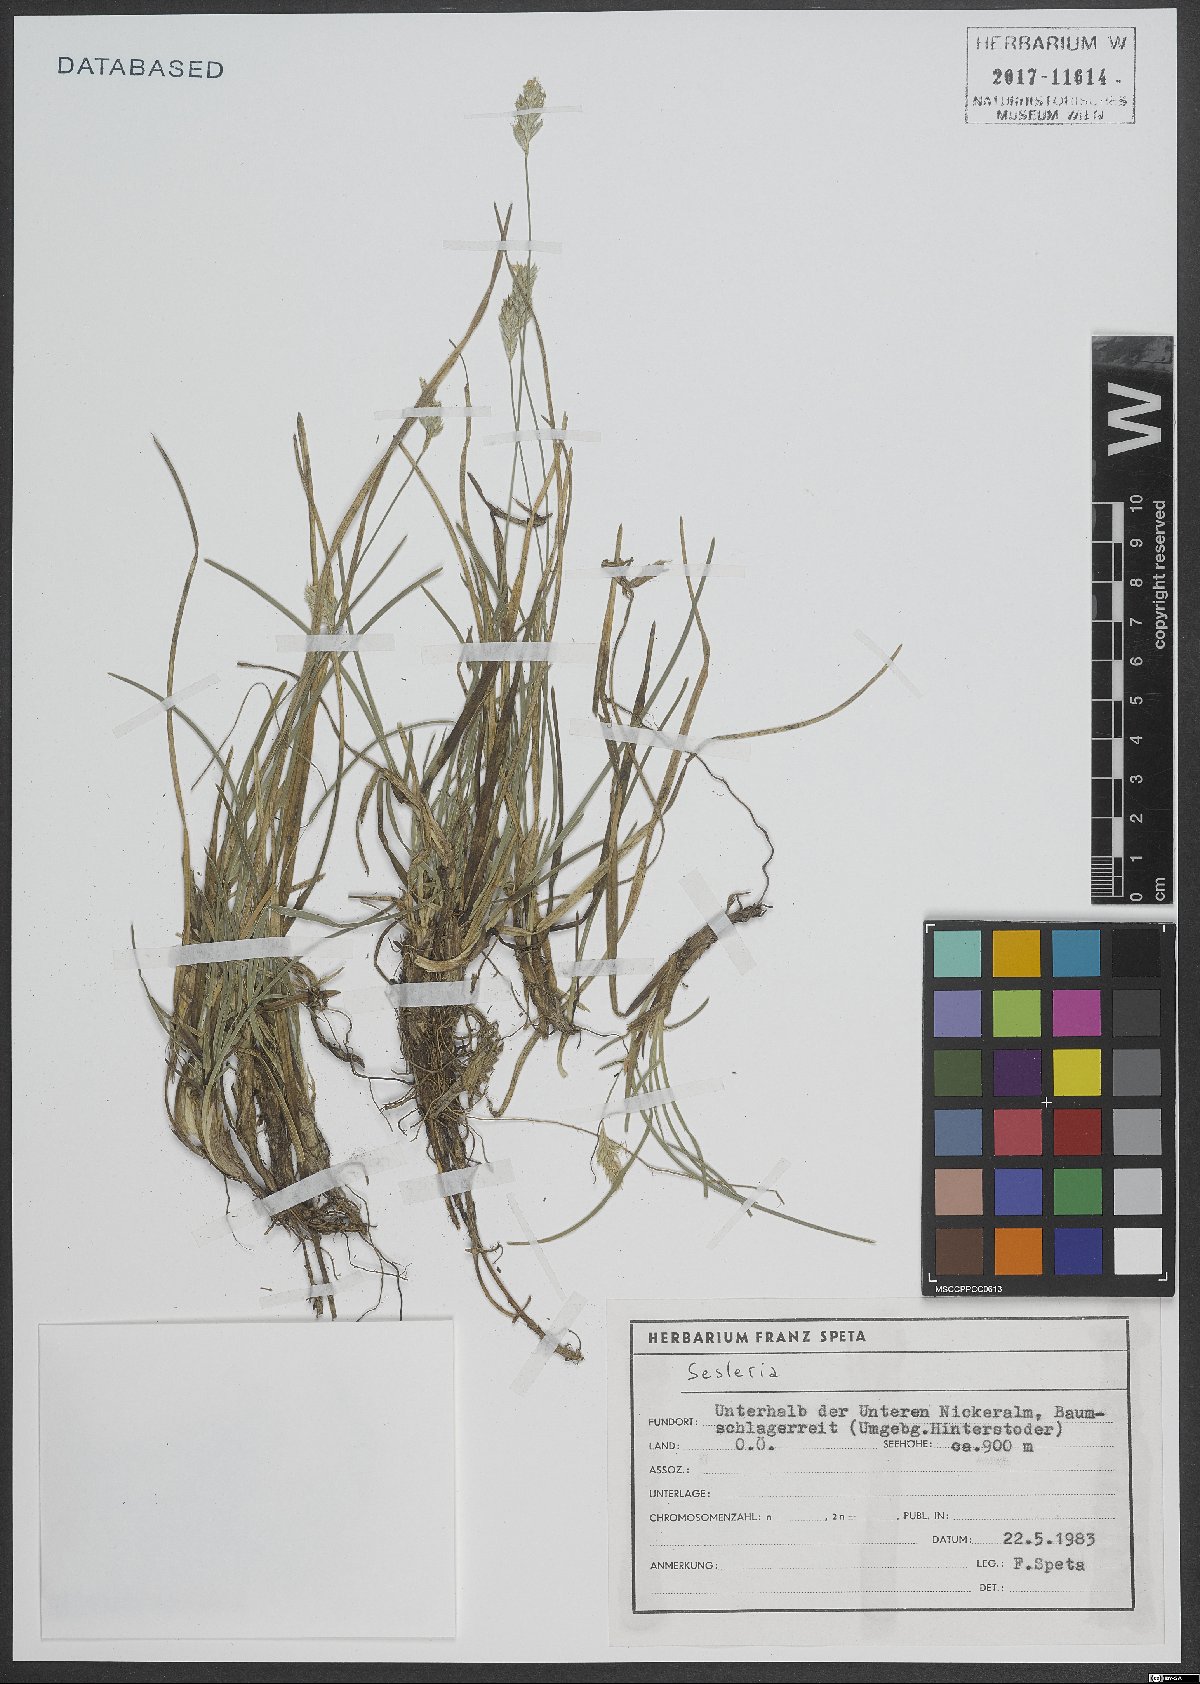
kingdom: Plantae
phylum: Tracheophyta
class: Liliopsida
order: Poales
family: Poaceae
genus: Sesleria
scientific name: Sesleria
